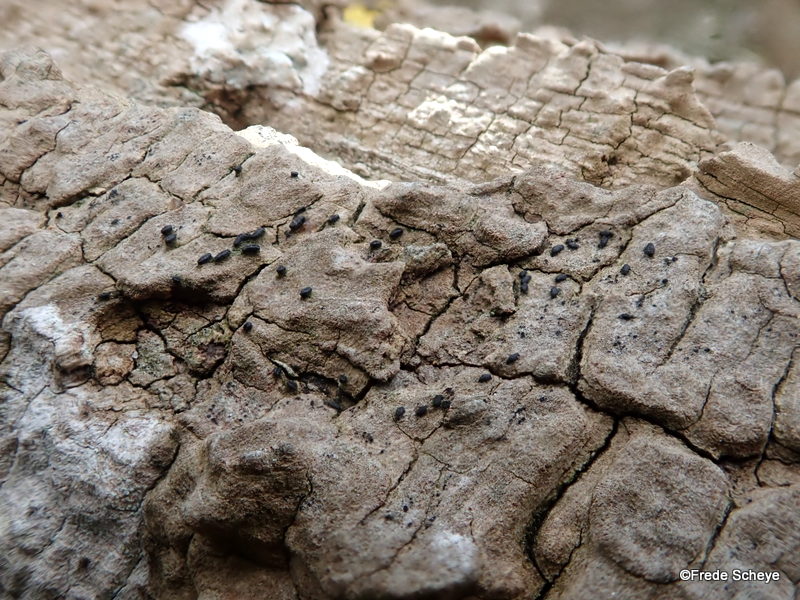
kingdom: Fungi
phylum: Ascomycota
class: Dothideomycetes
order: Hysteriales
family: Hysteriaceae
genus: Hysterium
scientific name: Hysterium acuminatum
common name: almindelig kulmund
